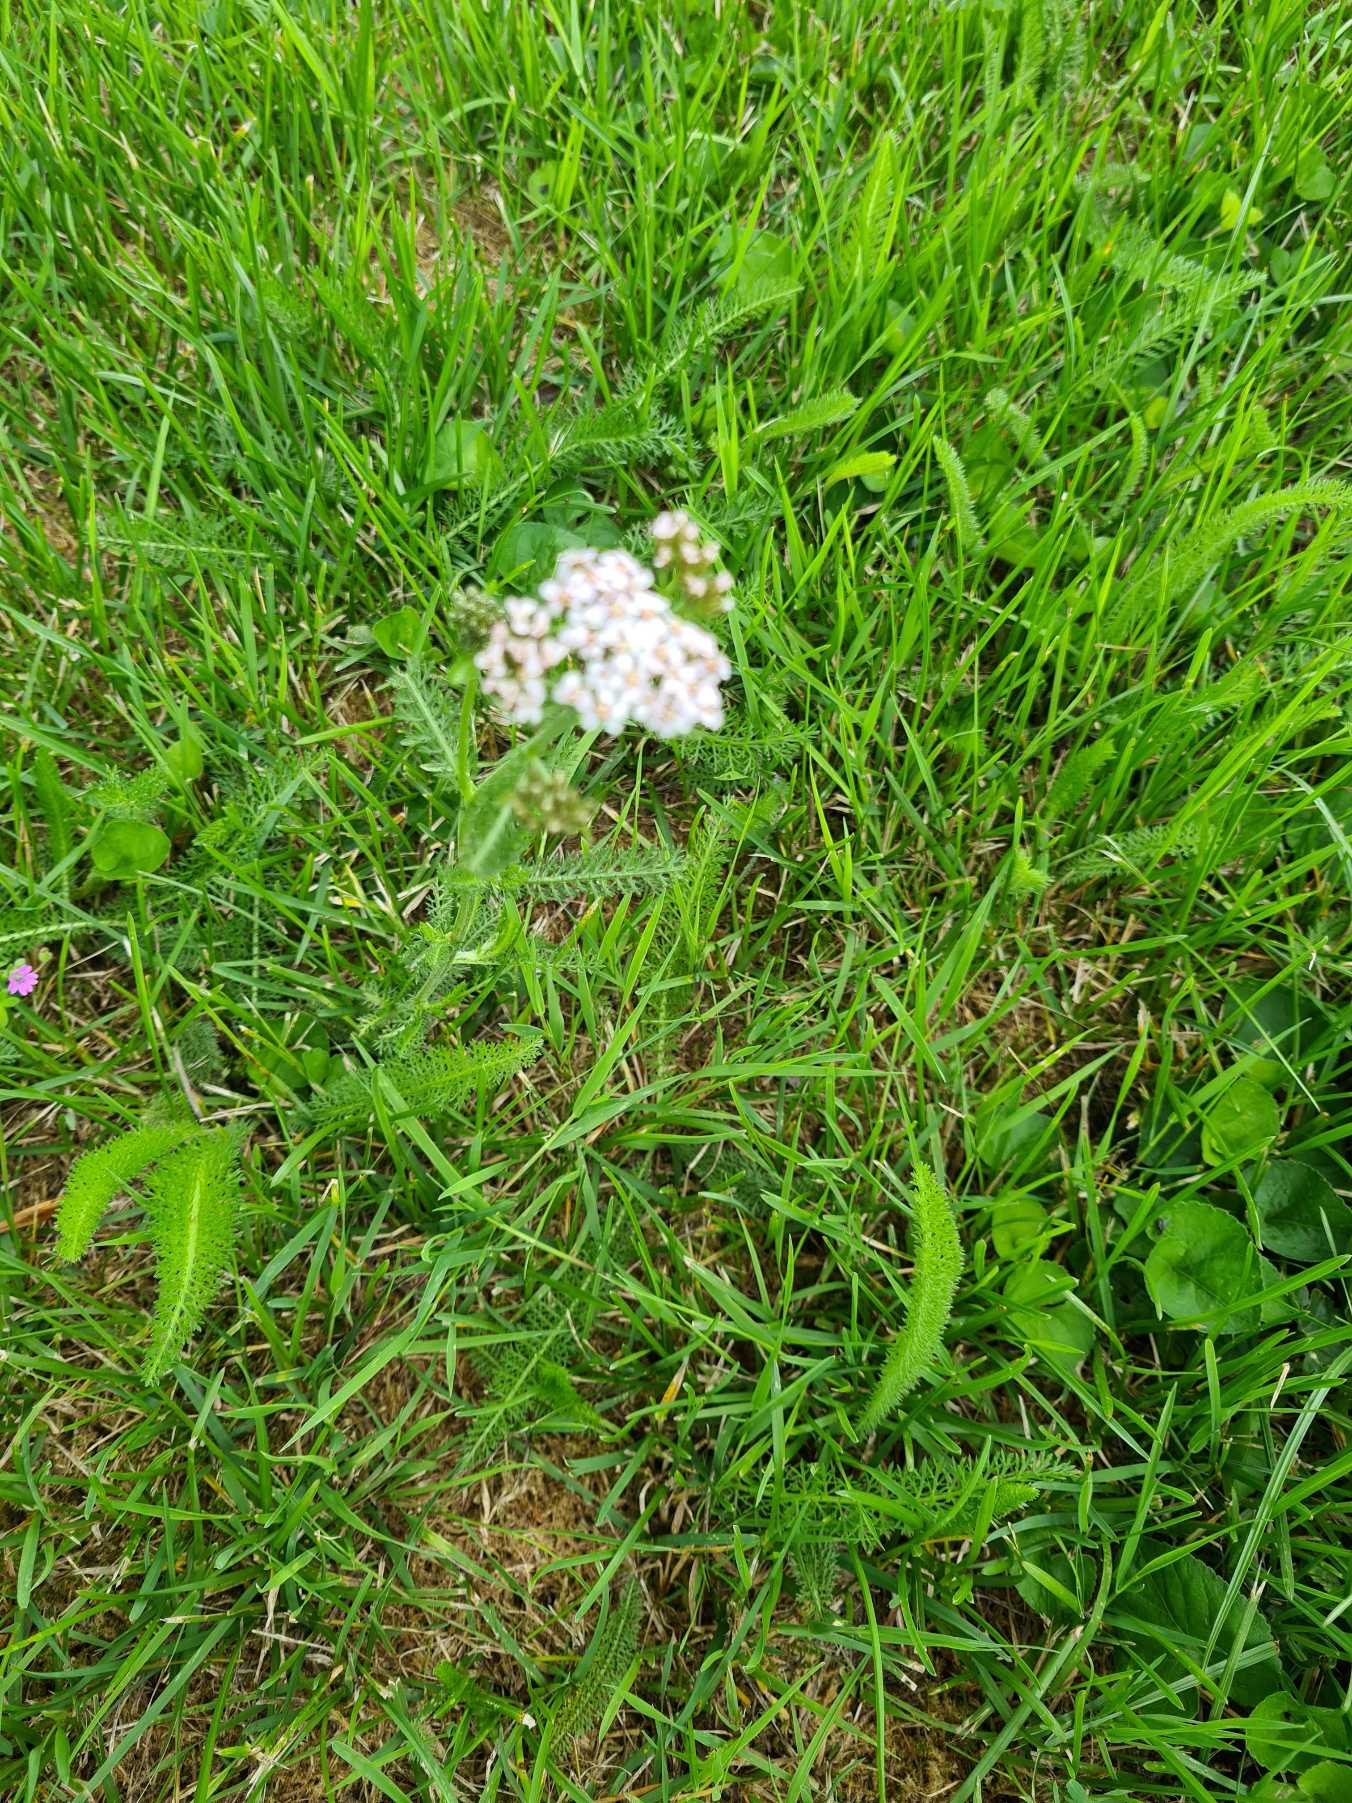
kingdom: Plantae
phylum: Tracheophyta
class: Magnoliopsida
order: Asterales
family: Asteraceae
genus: Achillea
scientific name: Achillea millefolium
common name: Almindelig røllike
